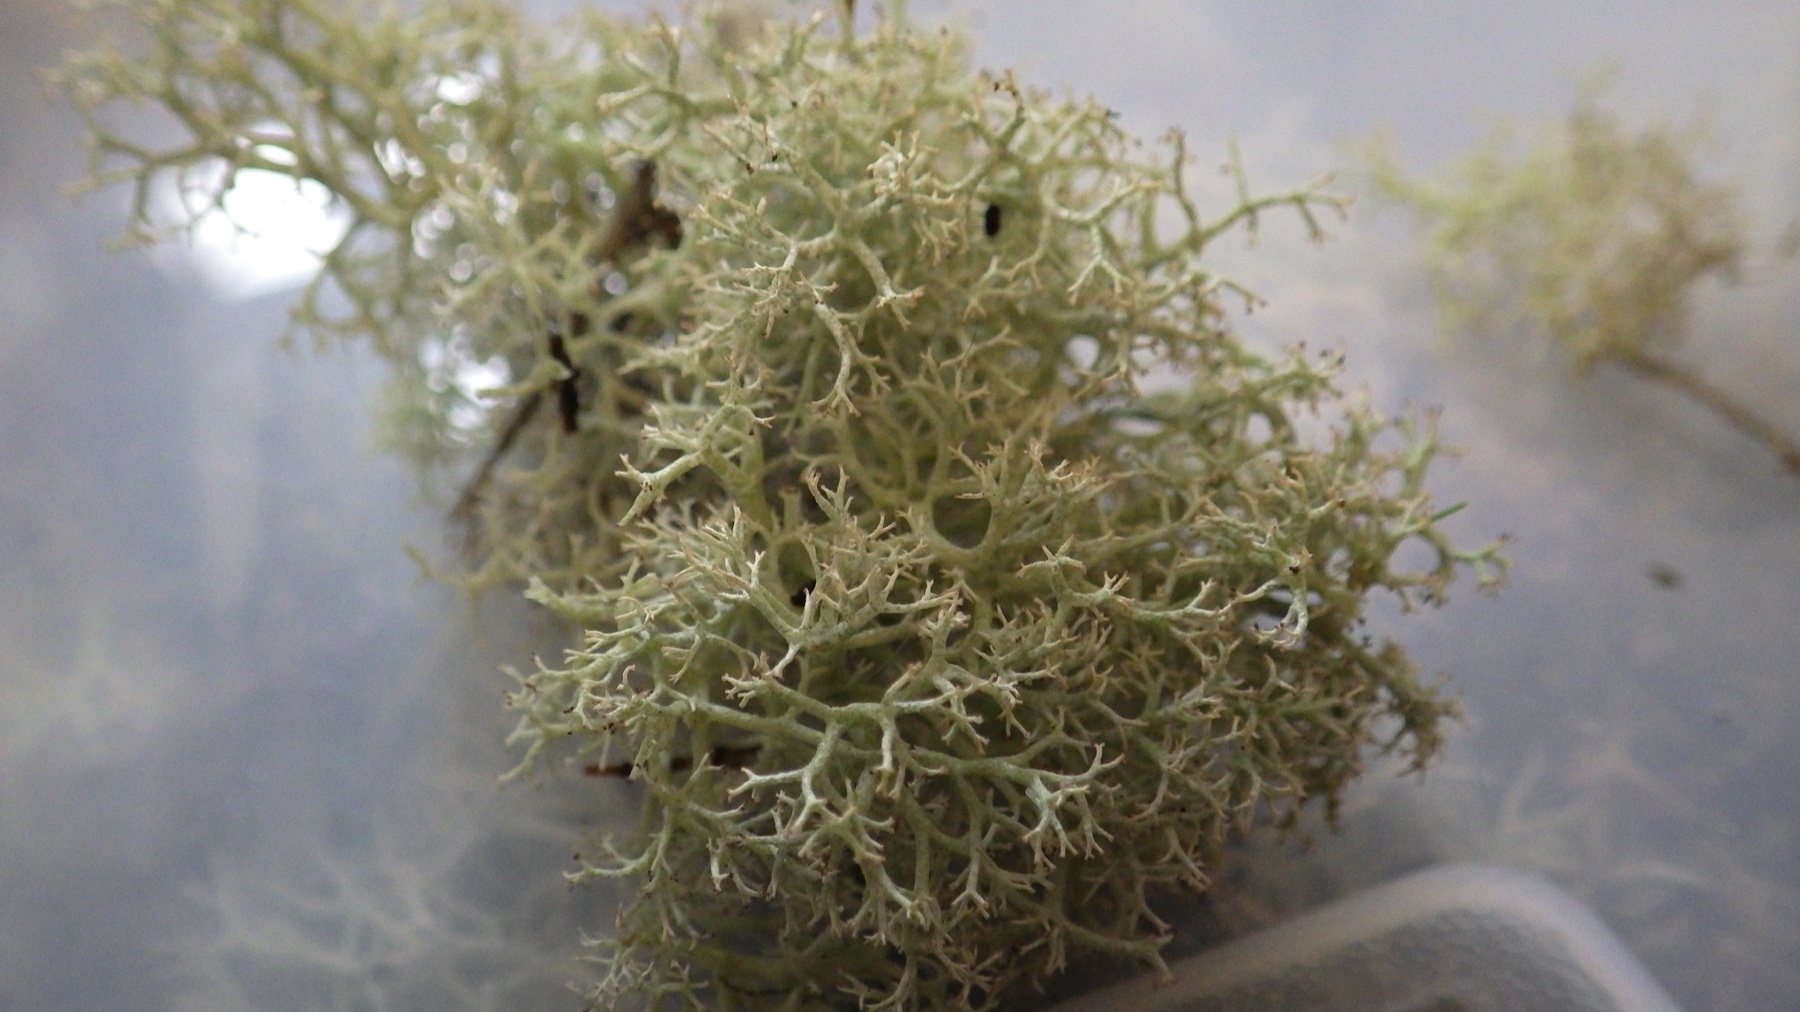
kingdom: Fungi
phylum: Ascomycota
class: Lecanoromycetes
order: Lecanorales
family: Cladoniaceae
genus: Cladonia
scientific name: Cladonia portentosa
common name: hede-rensdyrlav
